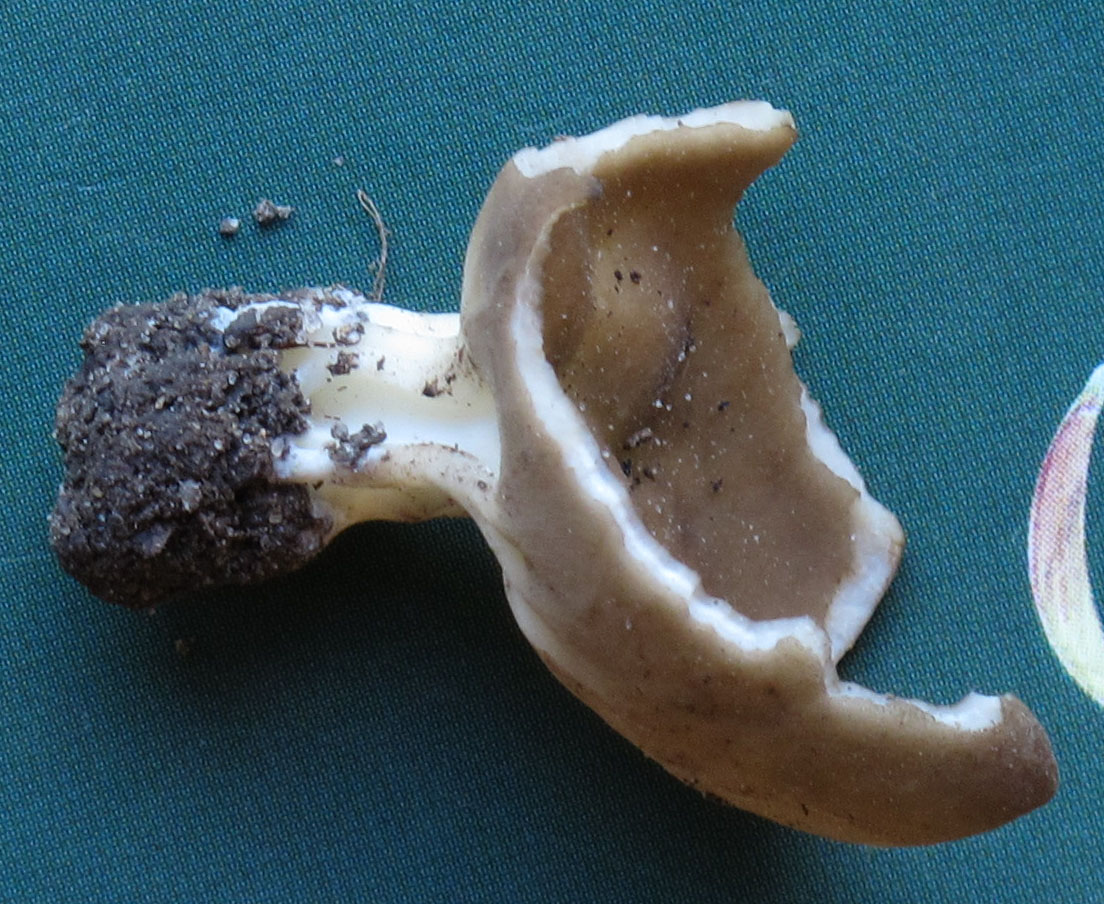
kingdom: Fungi
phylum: Ascomycota
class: Pezizomycetes
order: Pezizales
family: Helvellaceae
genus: Helvella
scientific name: Helvella acetabulum
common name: pokal-foldhat
